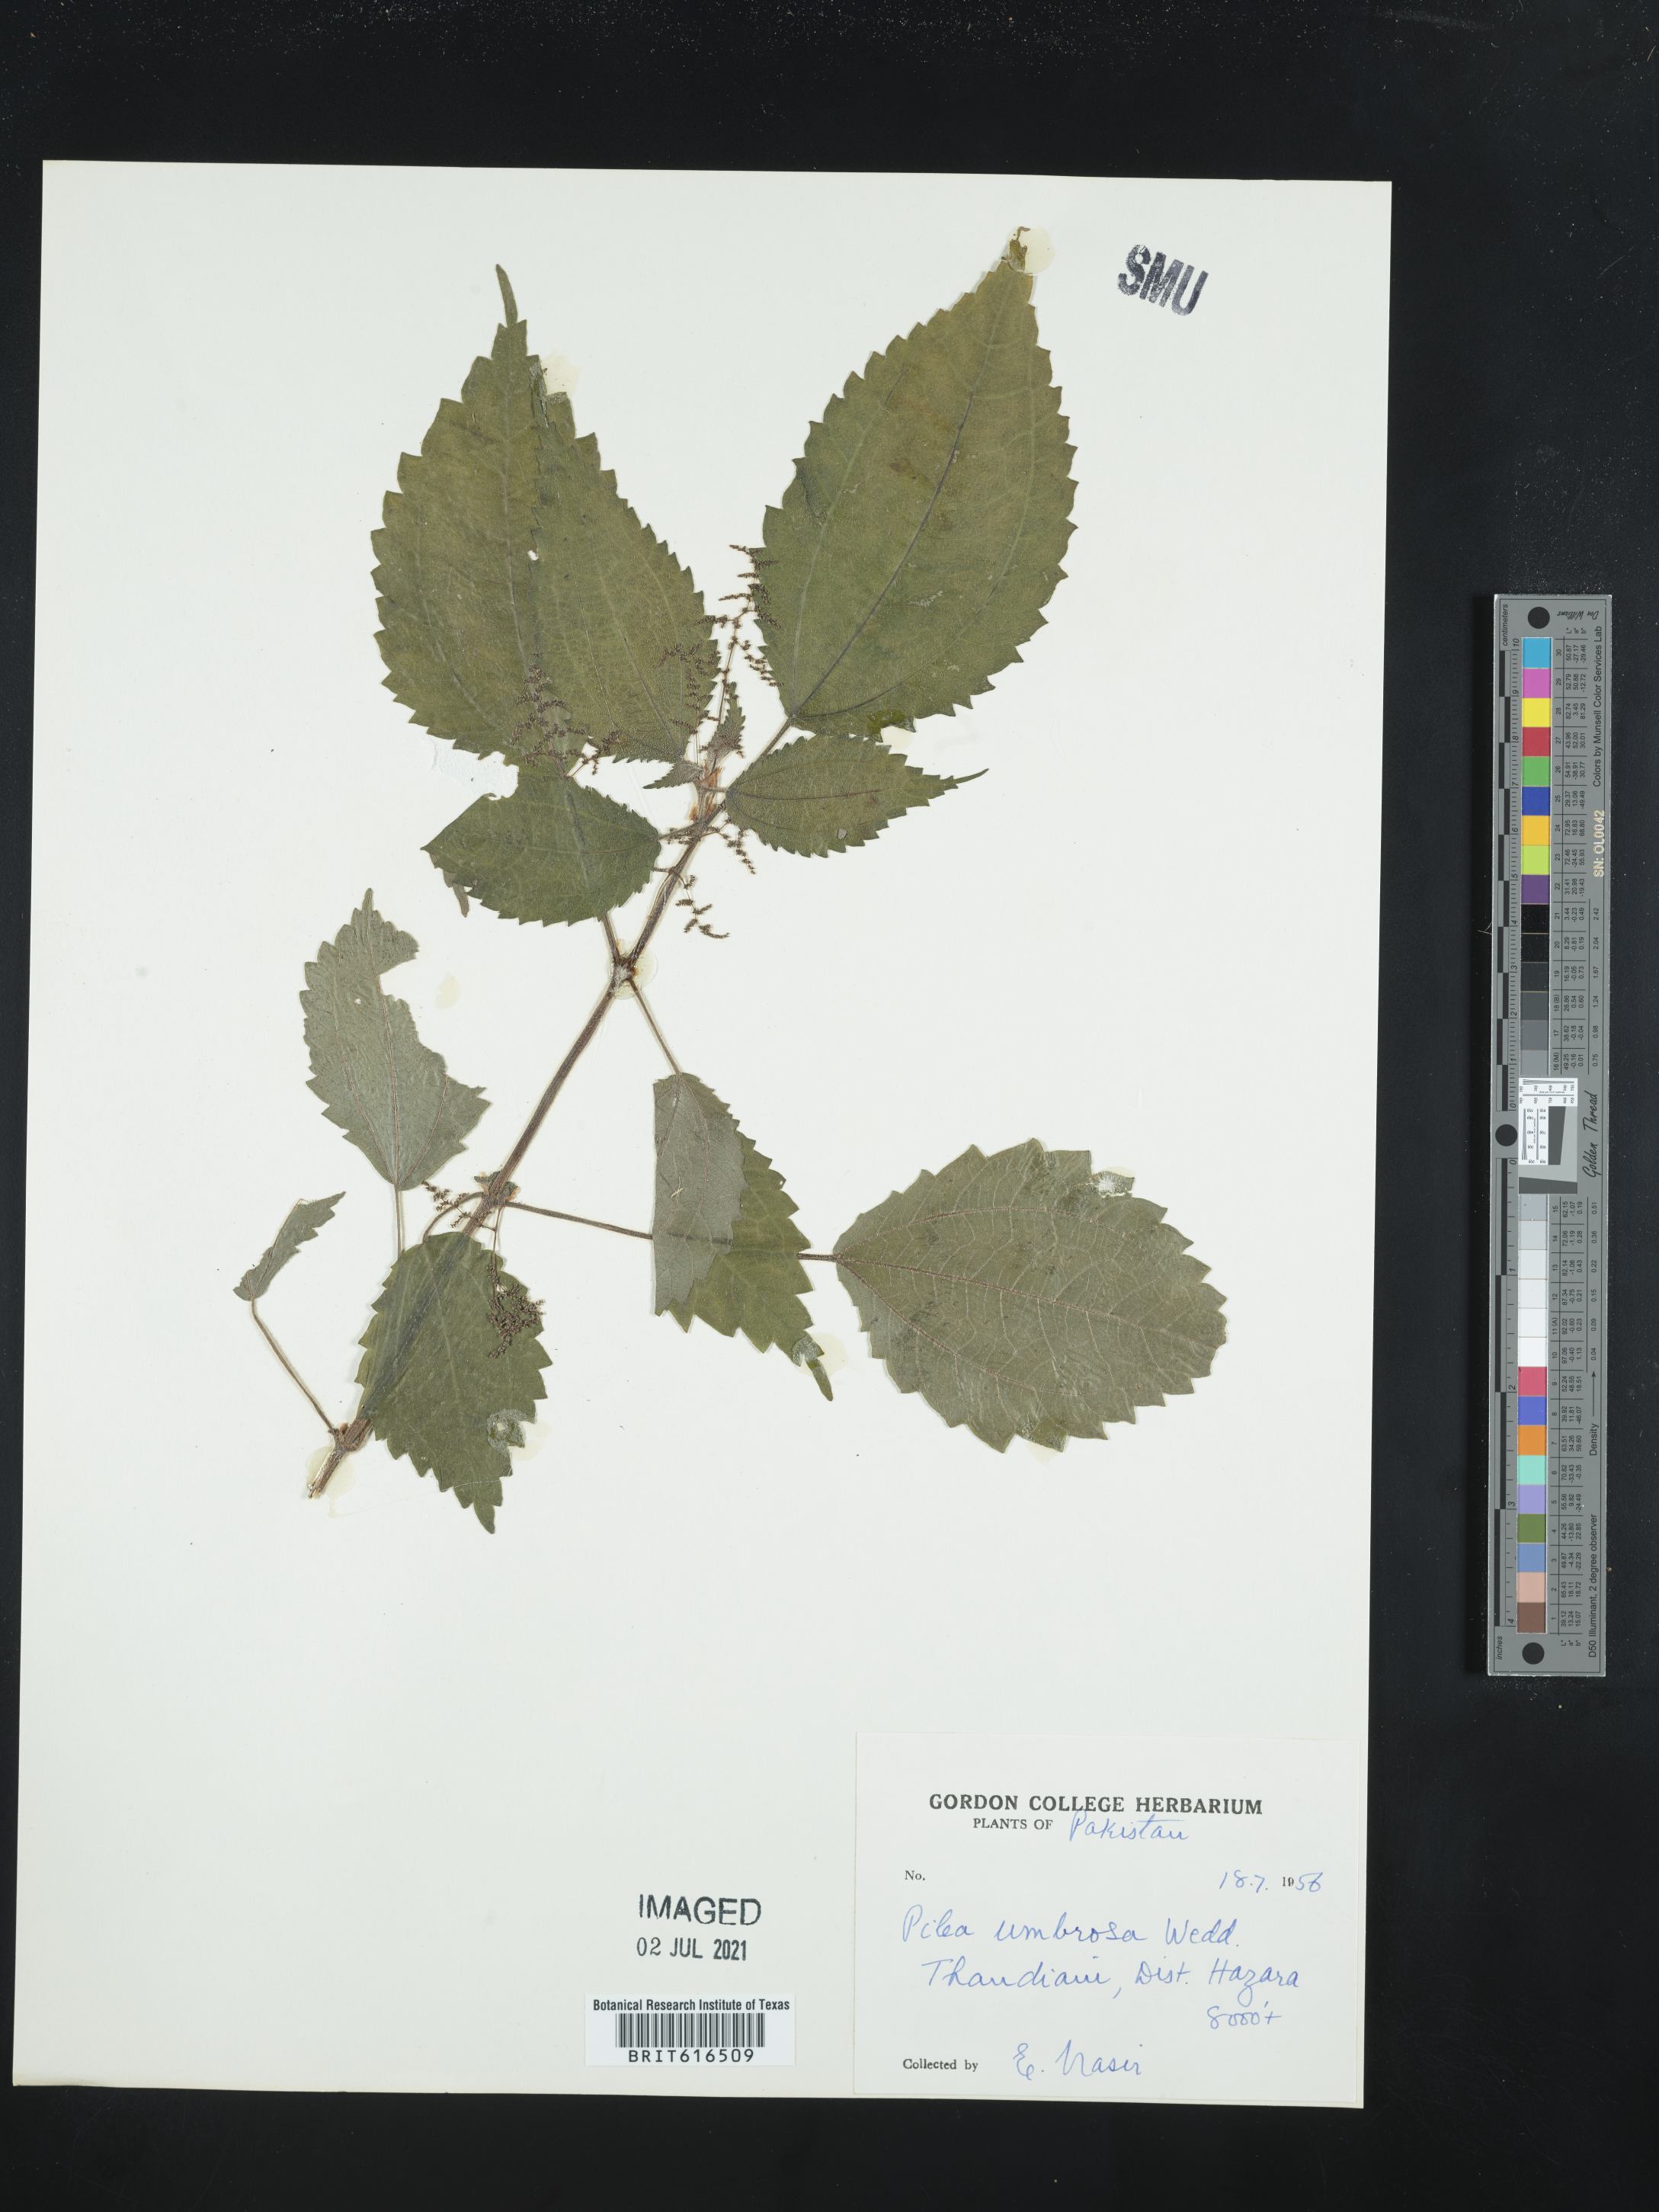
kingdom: Plantae
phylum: Tracheophyta
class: Magnoliopsida
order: Rosales
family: Urticaceae
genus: Pilea
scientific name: Pilea umbrosa
